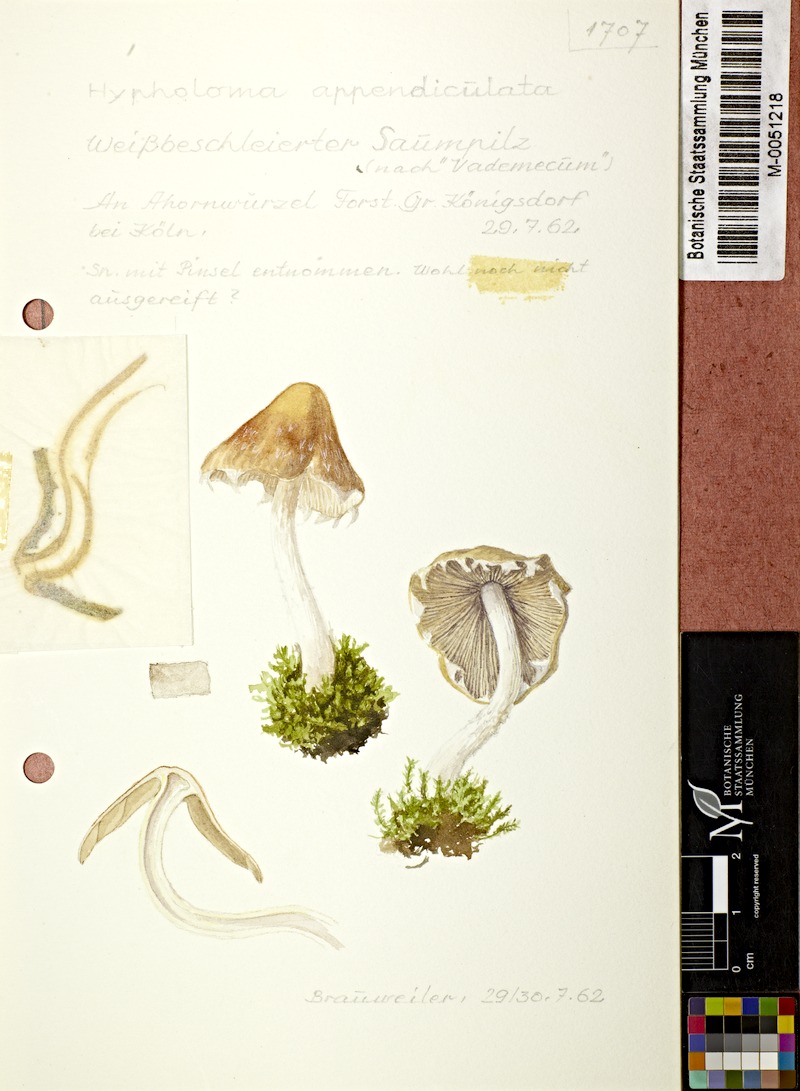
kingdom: Fungi
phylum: Basidiomycota
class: Agaricomycetes
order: Agaricales
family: Psathyrellaceae
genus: Candolleomyces
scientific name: Candolleomyces candolleanus
